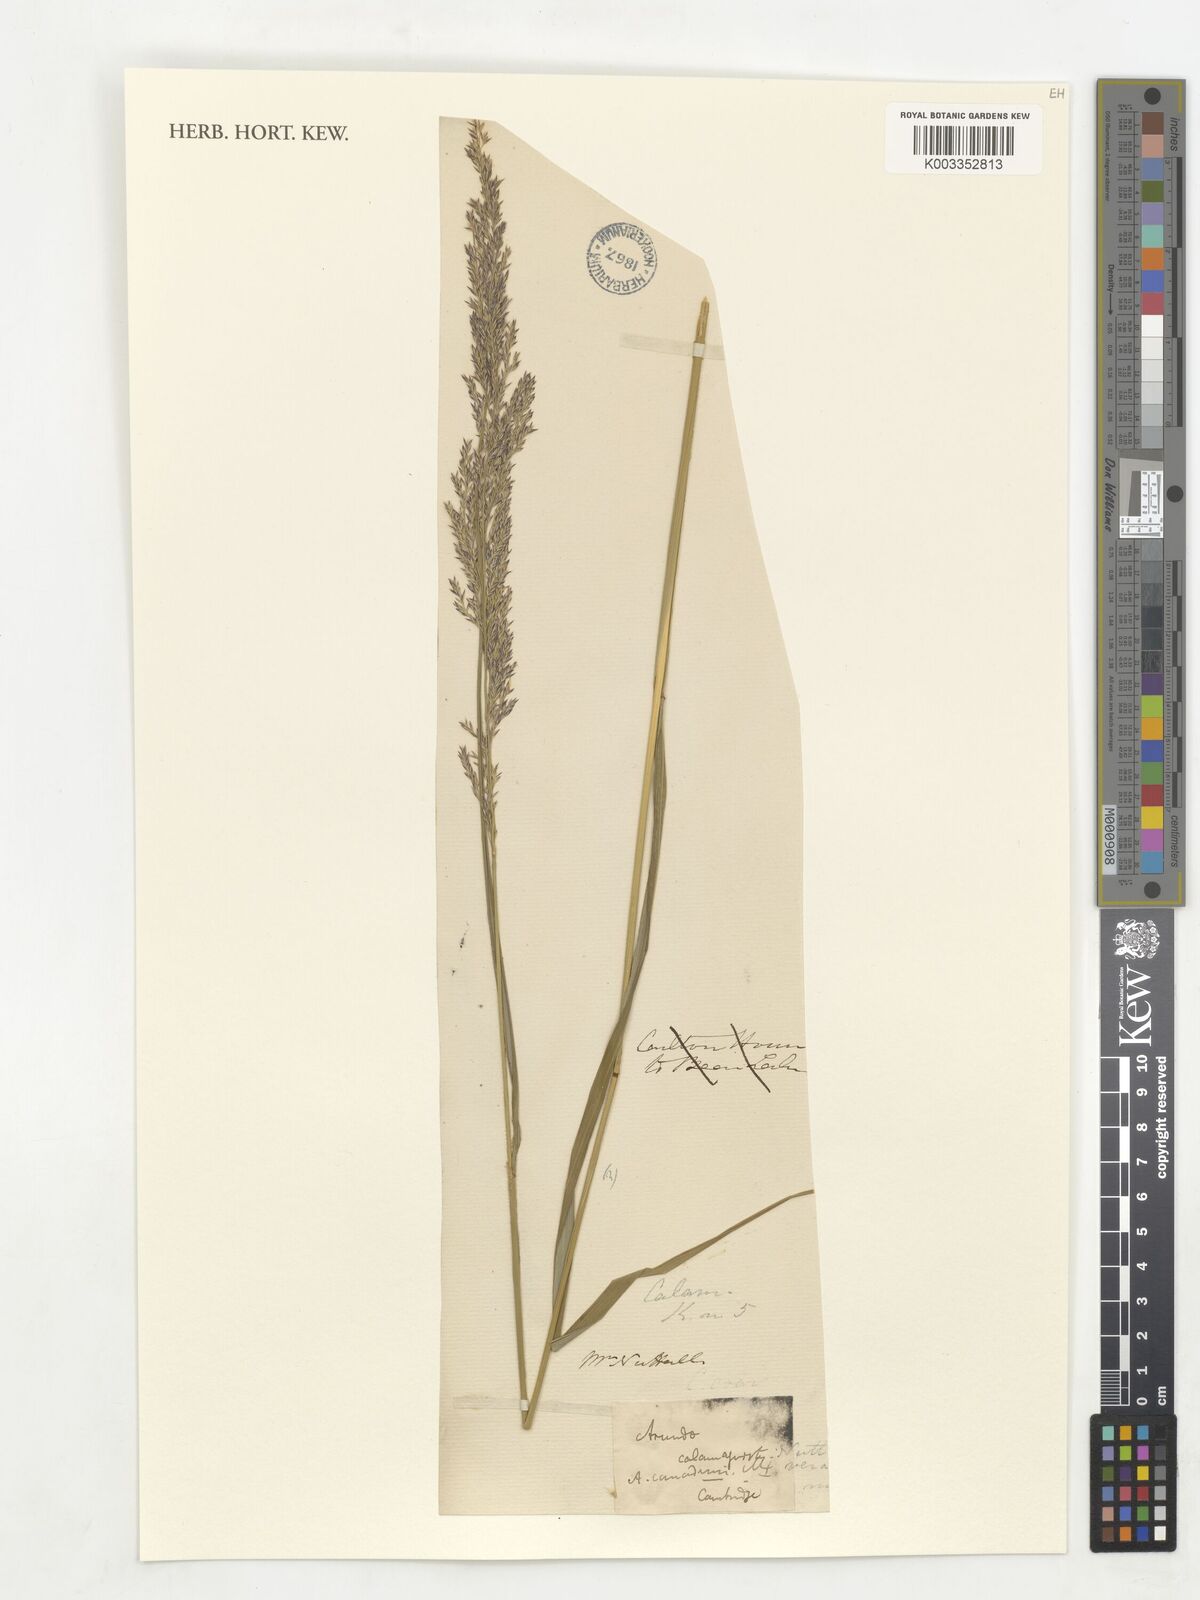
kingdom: Plantae
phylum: Tracheophyta
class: Liliopsida
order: Poales
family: Poaceae
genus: Calamagrostis
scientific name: Calamagrostis canadensis
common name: Canada bluejoint
